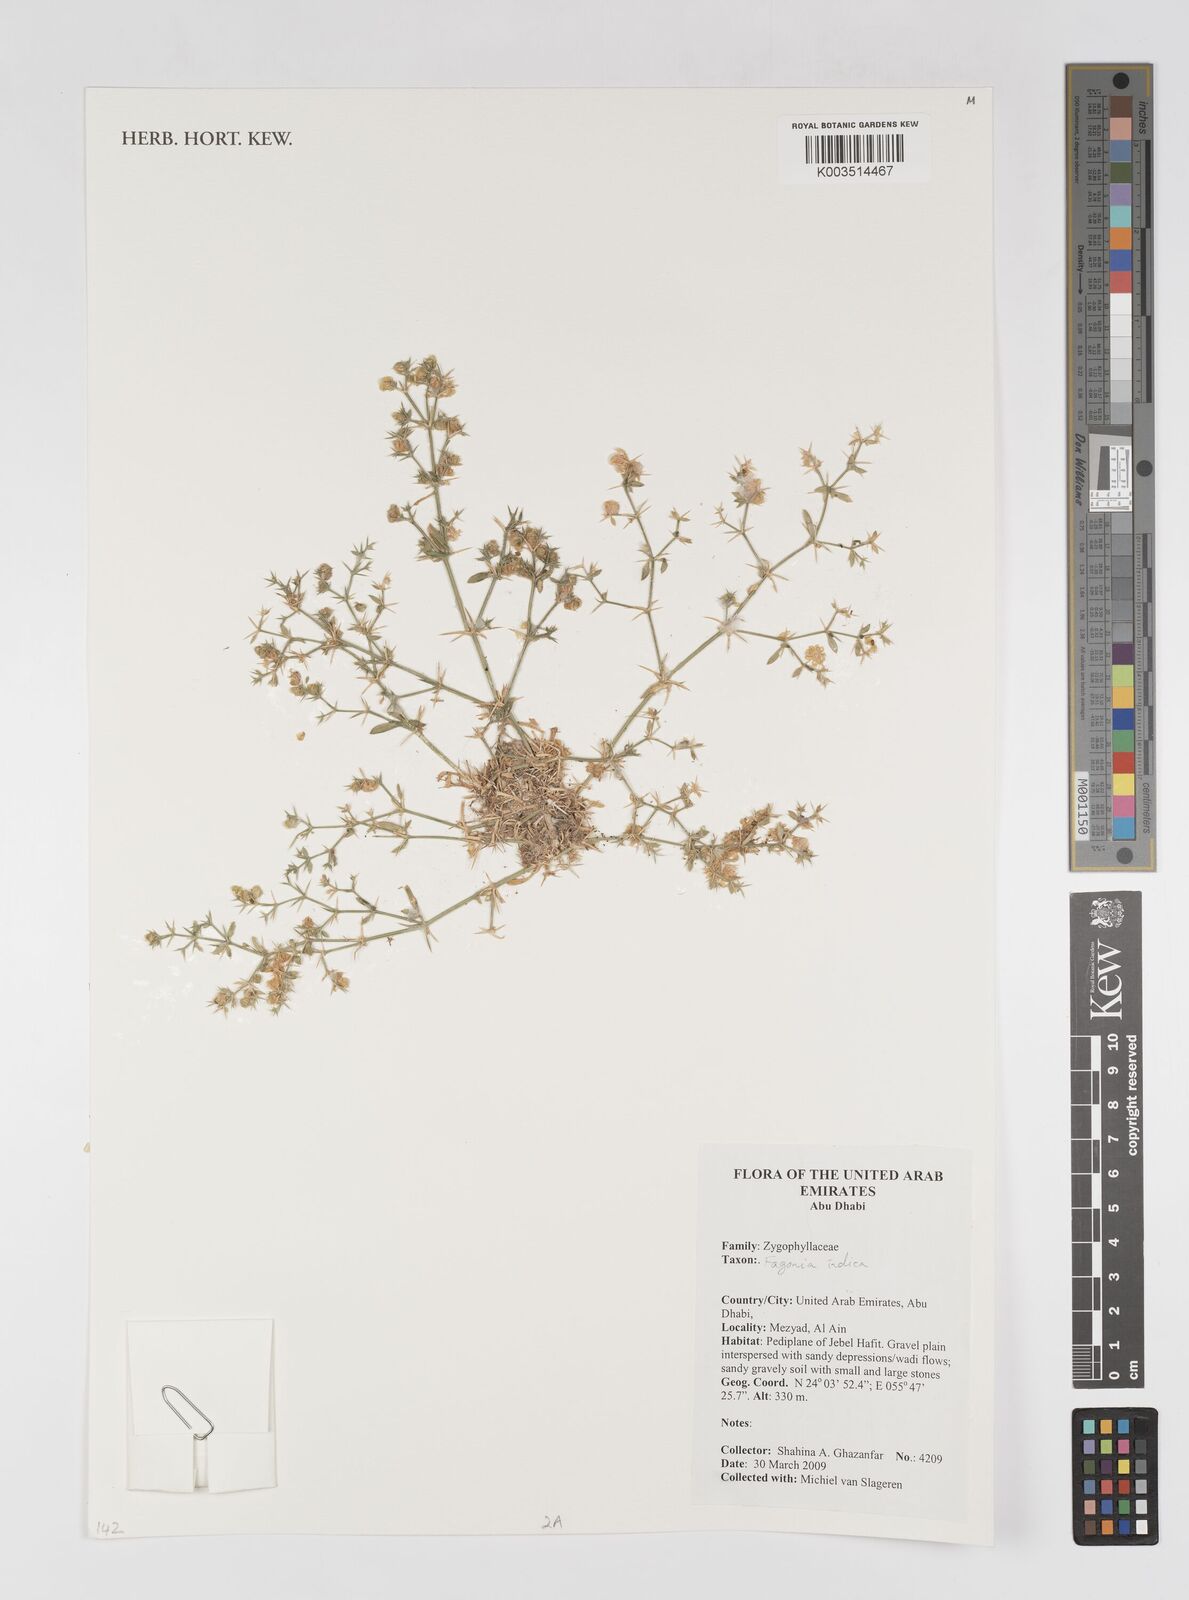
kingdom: Plantae
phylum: Tracheophyta
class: Magnoliopsida
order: Zygophyllales
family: Zygophyllaceae
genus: Fagonia
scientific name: Fagonia indica
